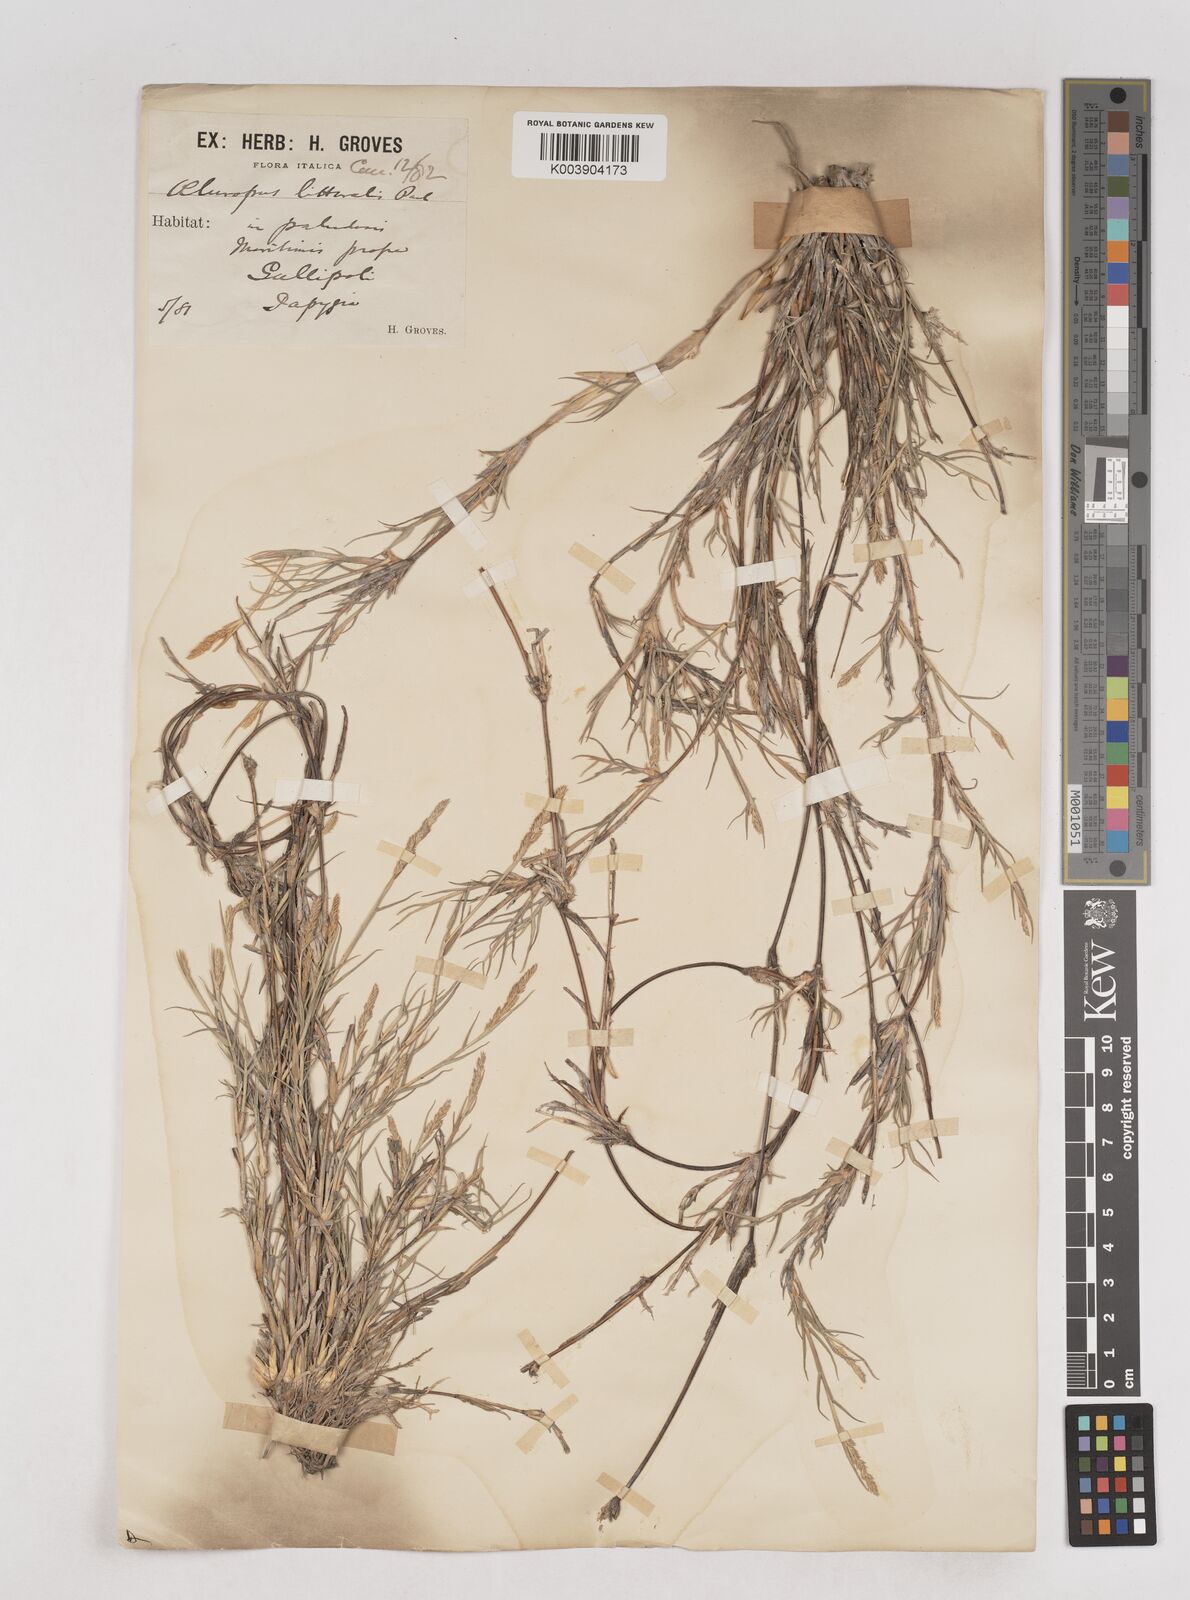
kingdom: Plantae
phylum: Tracheophyta
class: Liliopsida
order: Poales
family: Poaceae
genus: Aeluropus
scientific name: Aeluropus littoralis
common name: Indian walnut
